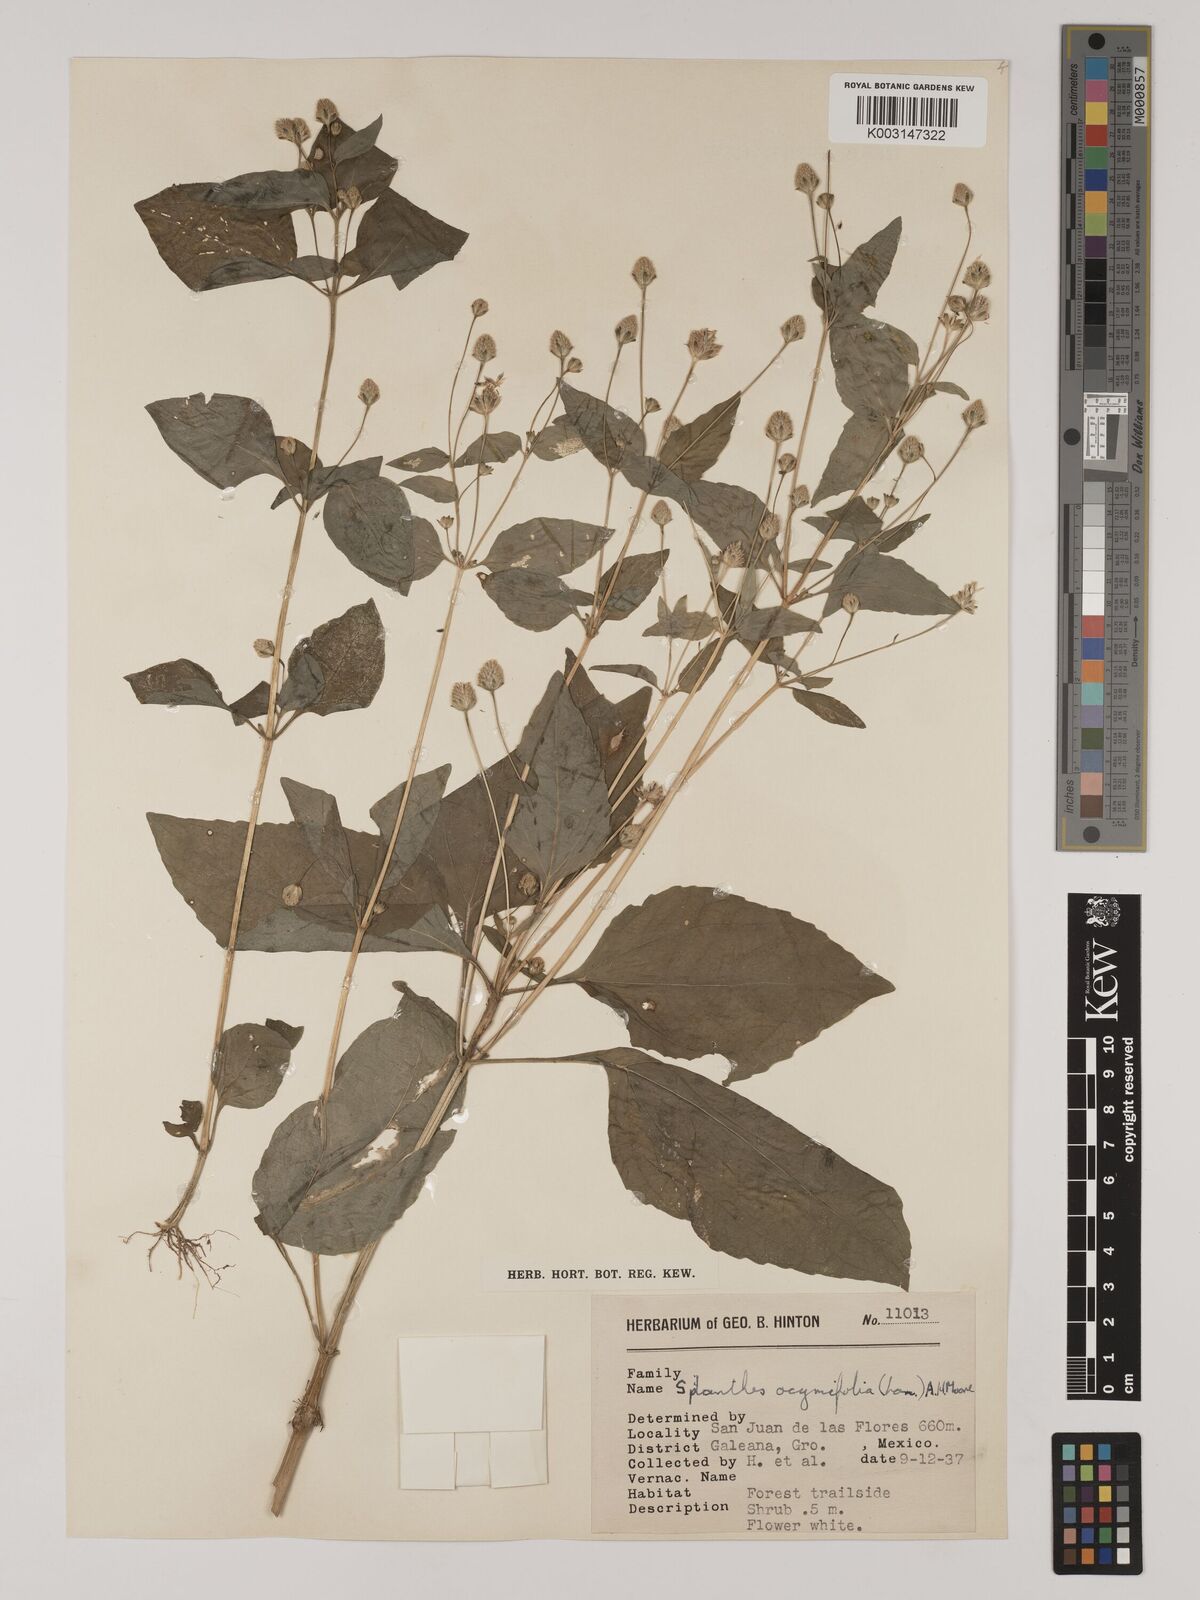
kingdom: Plantae
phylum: Tracheophyta
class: Magnoliopsida
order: Asterales
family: Asteraceae
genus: Acmella
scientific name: Acmella radicans
